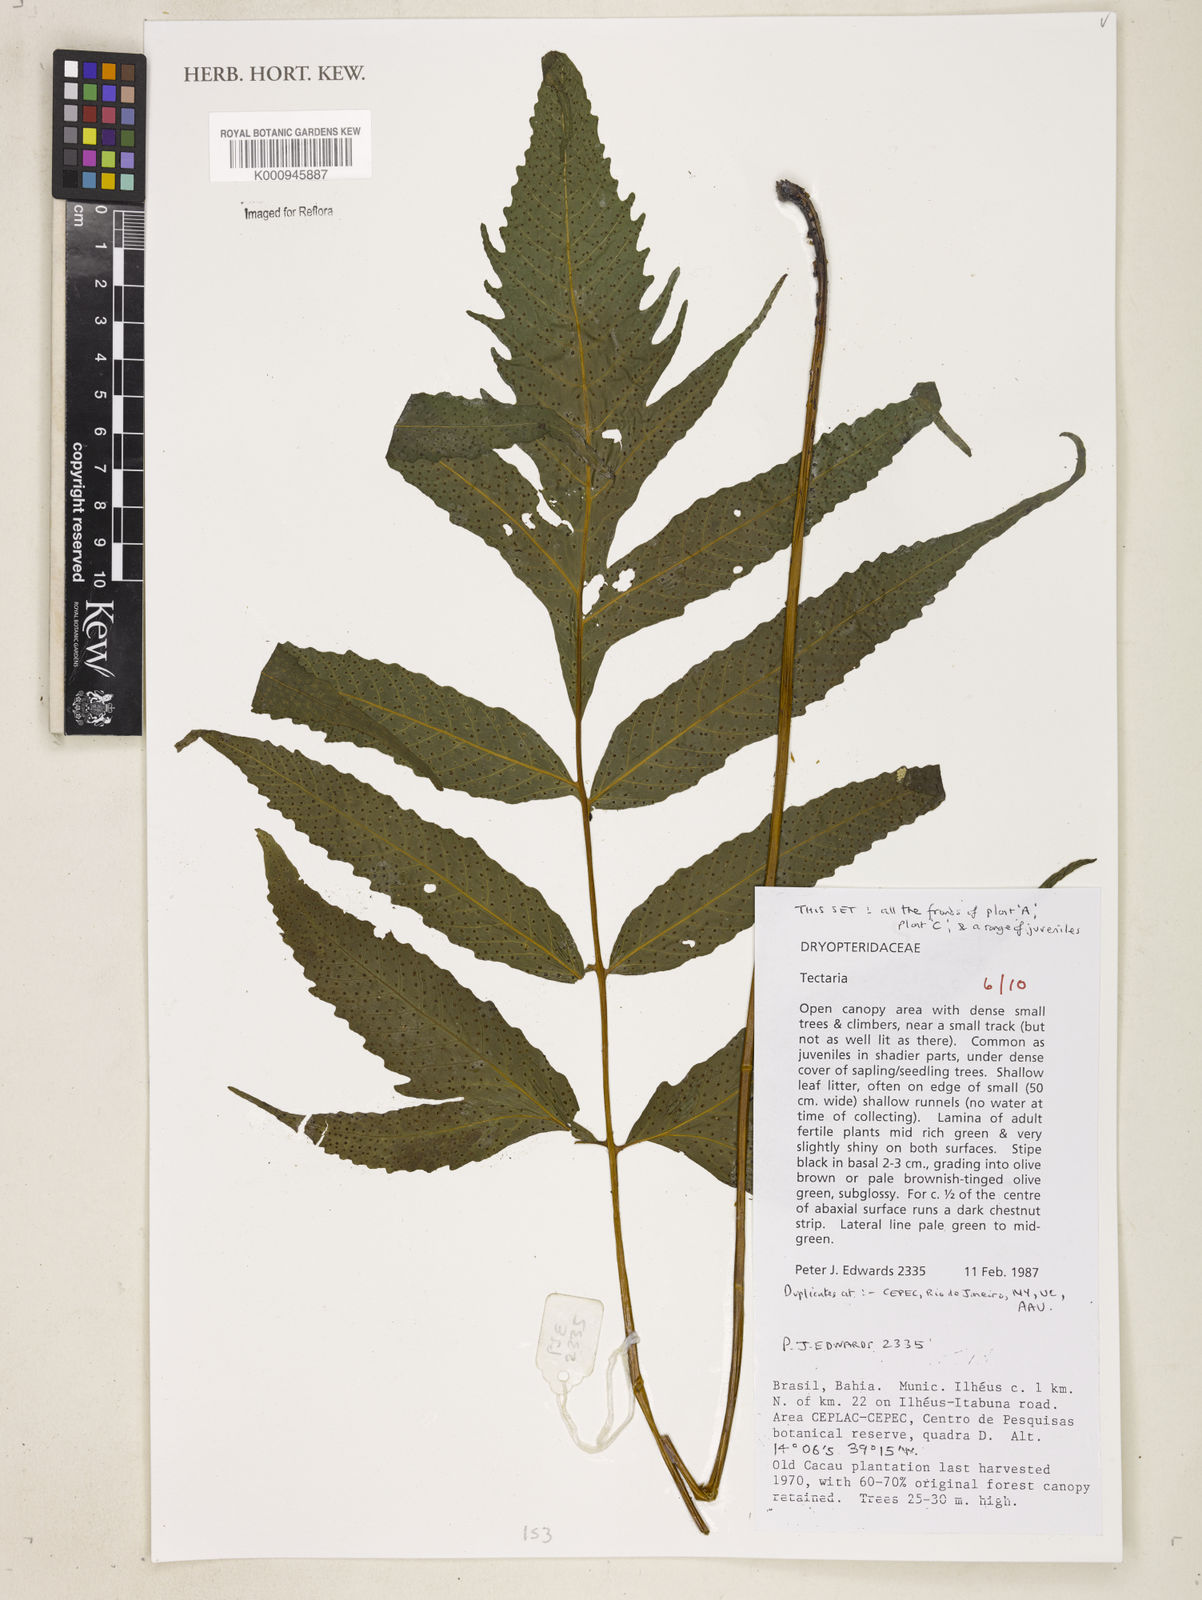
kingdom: Plantae
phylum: Tracheophyta
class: Polypodiopsida
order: Polypodiales
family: Tectariaceae
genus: Tectaria
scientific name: Tectaria
